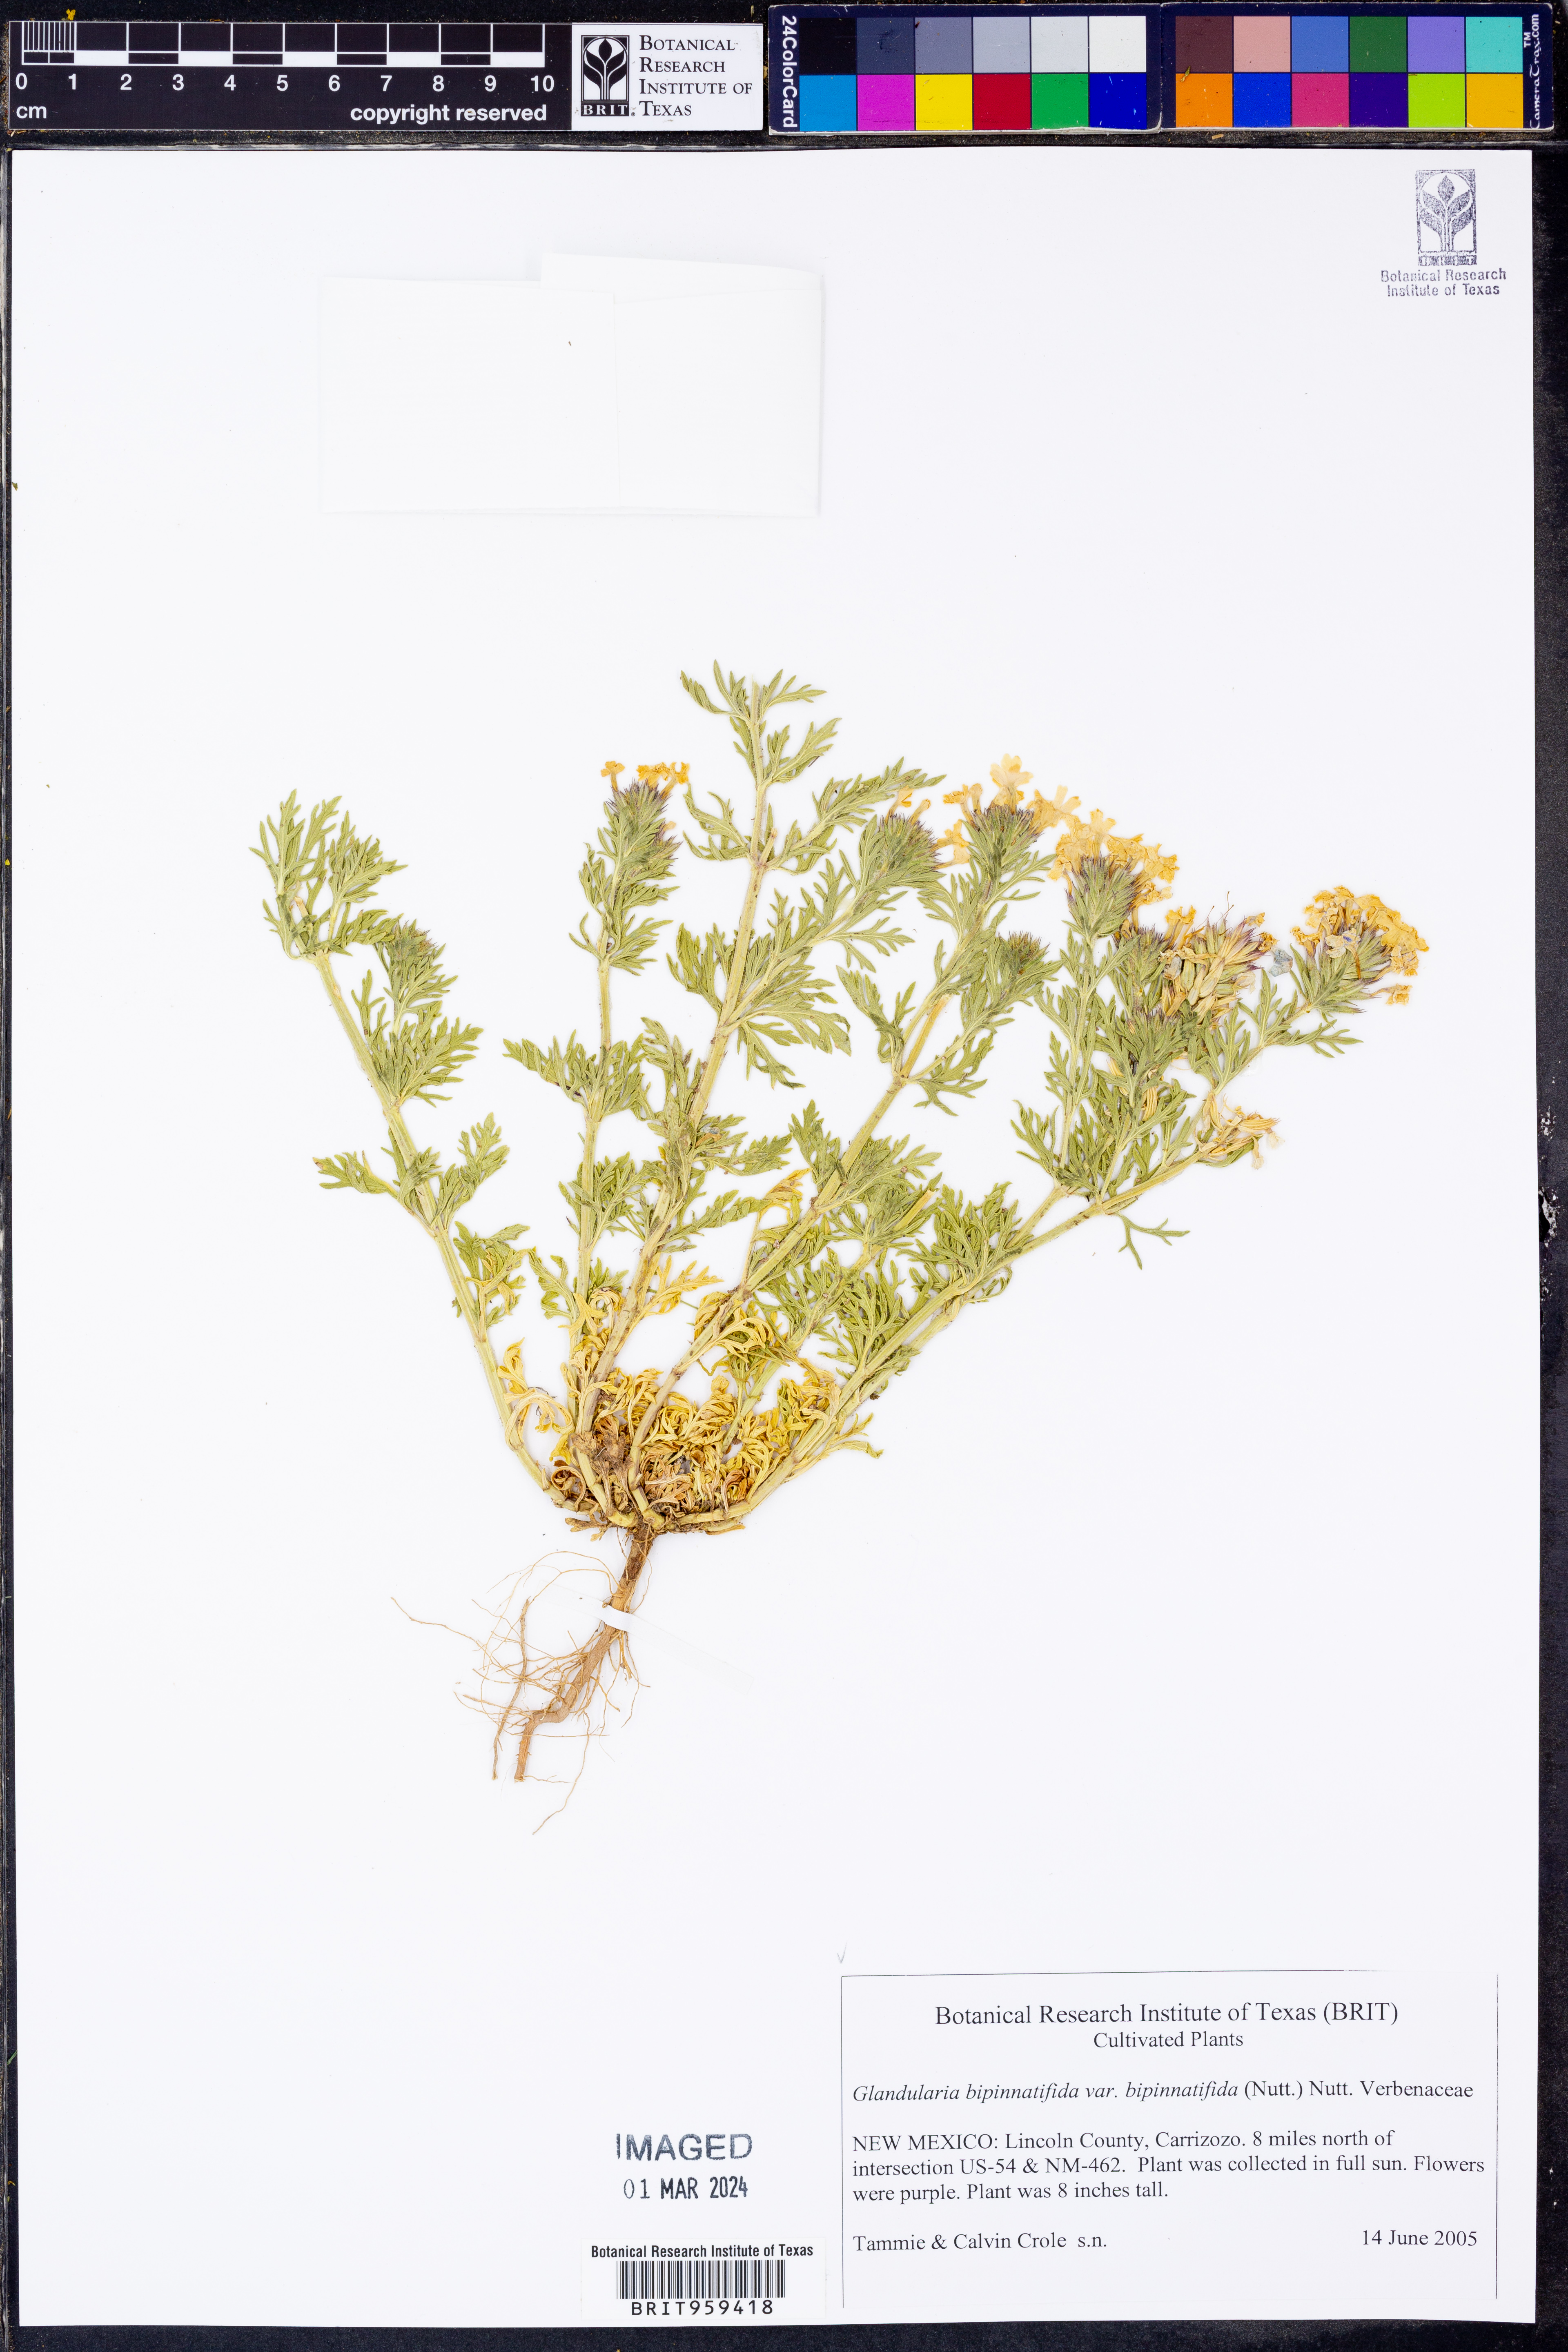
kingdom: Plantae
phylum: Tracheophyta
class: Magnoliopsida
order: Lamiales
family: Verbenaceae
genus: Verbena
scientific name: Verbena bipinnatifida
